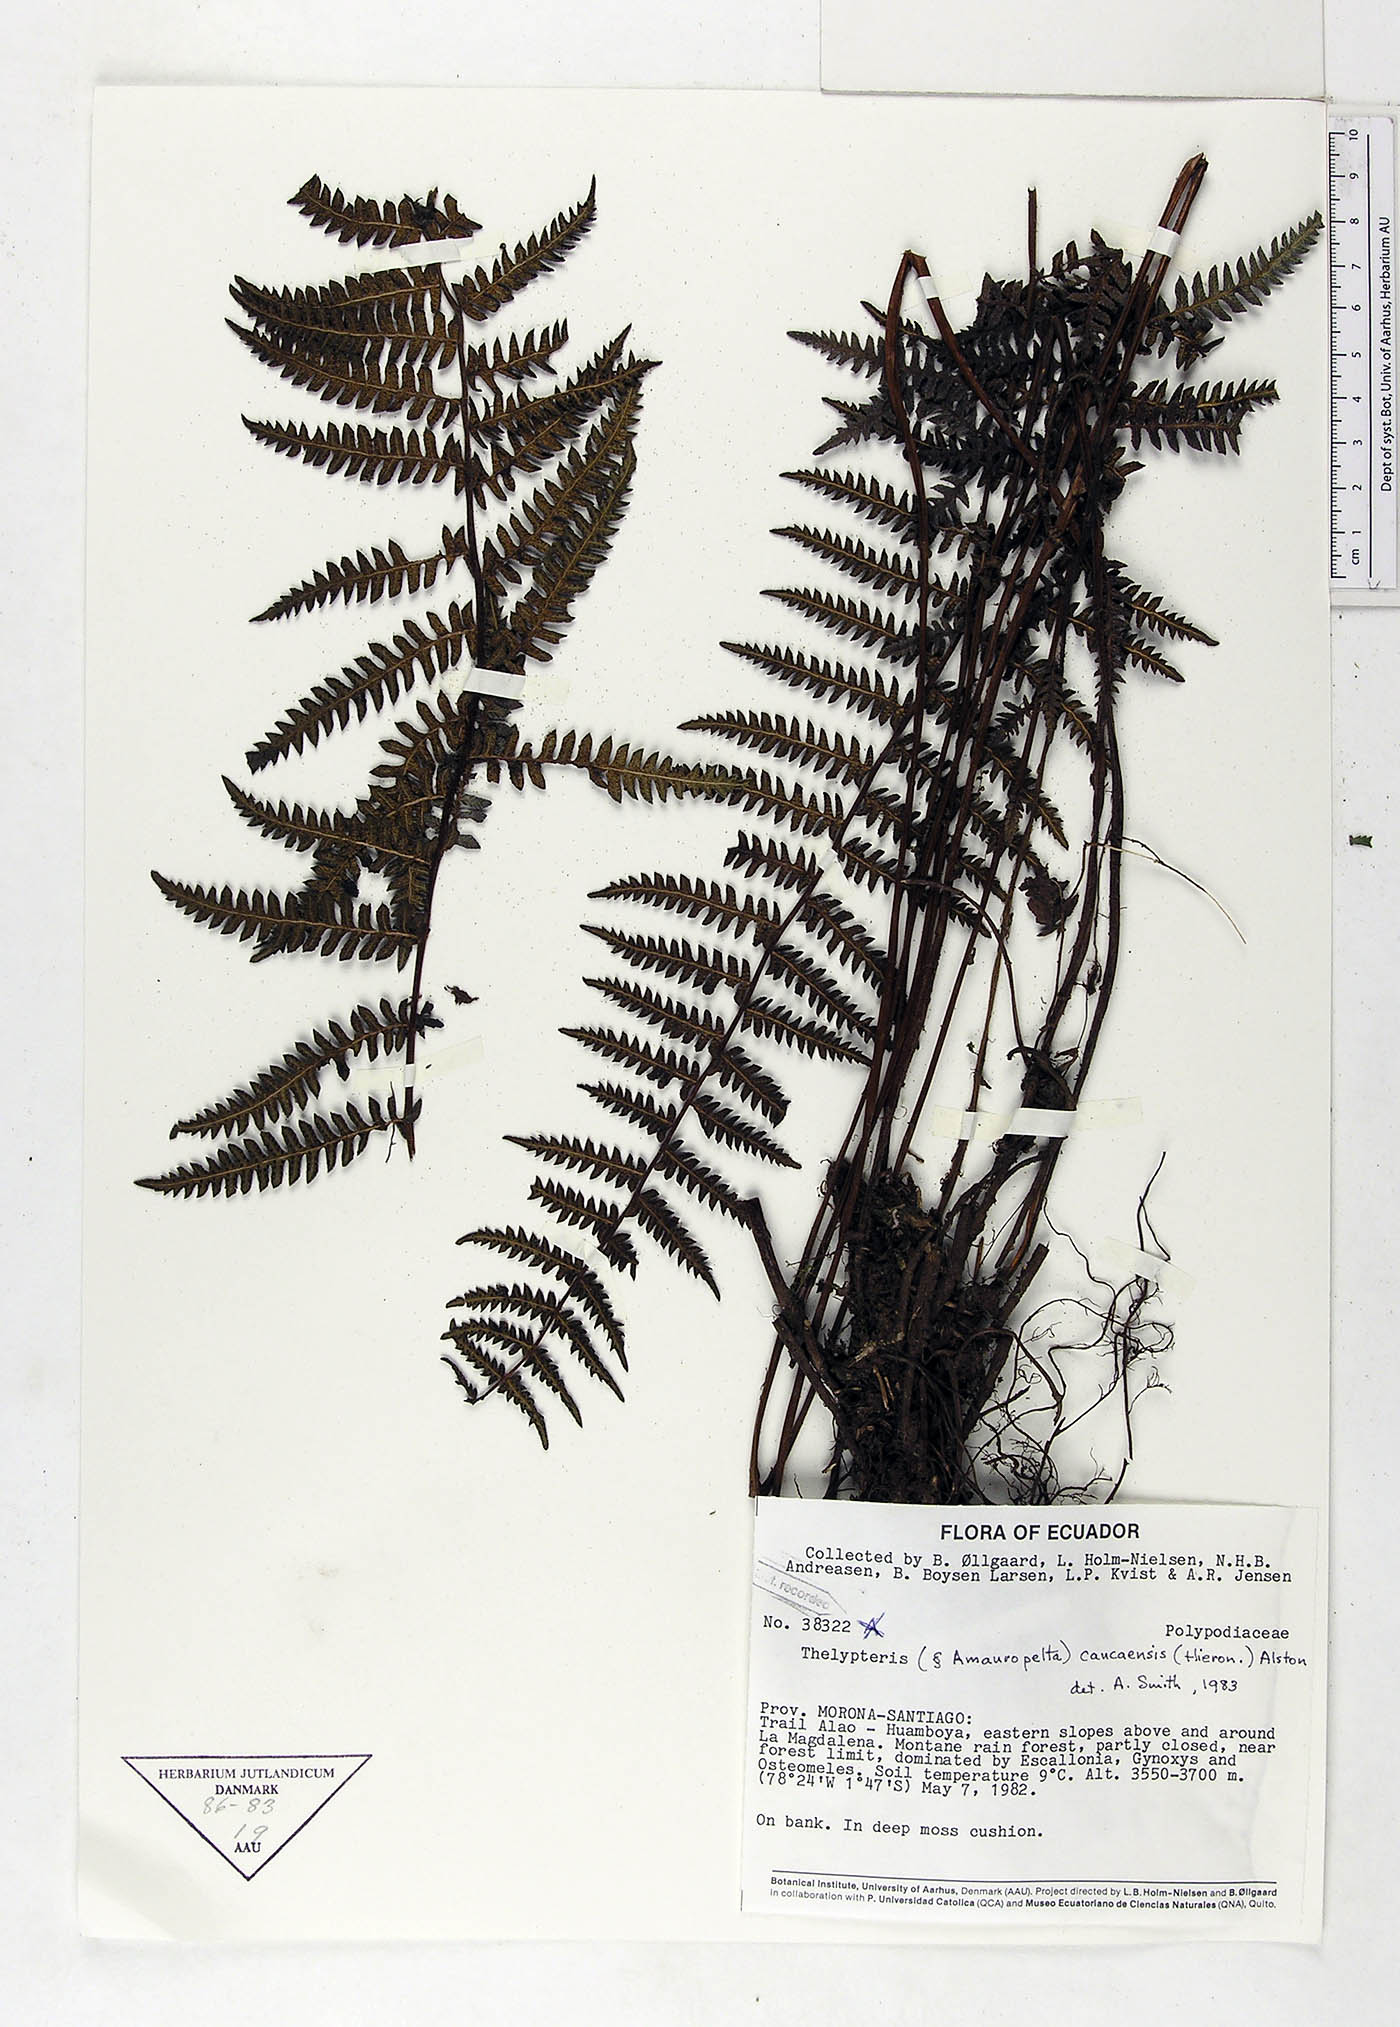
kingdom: Plantae
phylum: Tracheophyta
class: Polypodiopsida
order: Polypodiales
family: Thelypteridaceae
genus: Amauropelta
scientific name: Amauropelta caucaensis
